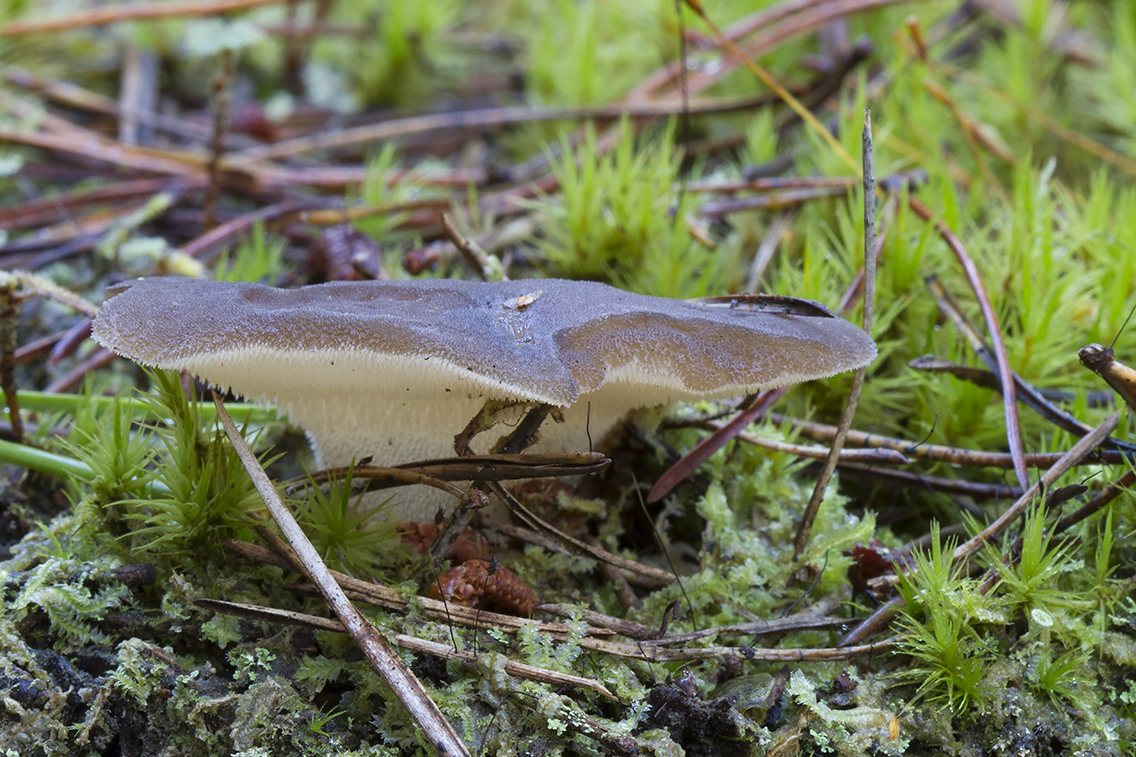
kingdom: Fungi
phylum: Basidiomycota
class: Agaricomycetes
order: Auriculariales
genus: Pseudohydnum
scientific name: Pseudohydnum gelatinosum
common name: bævretand
